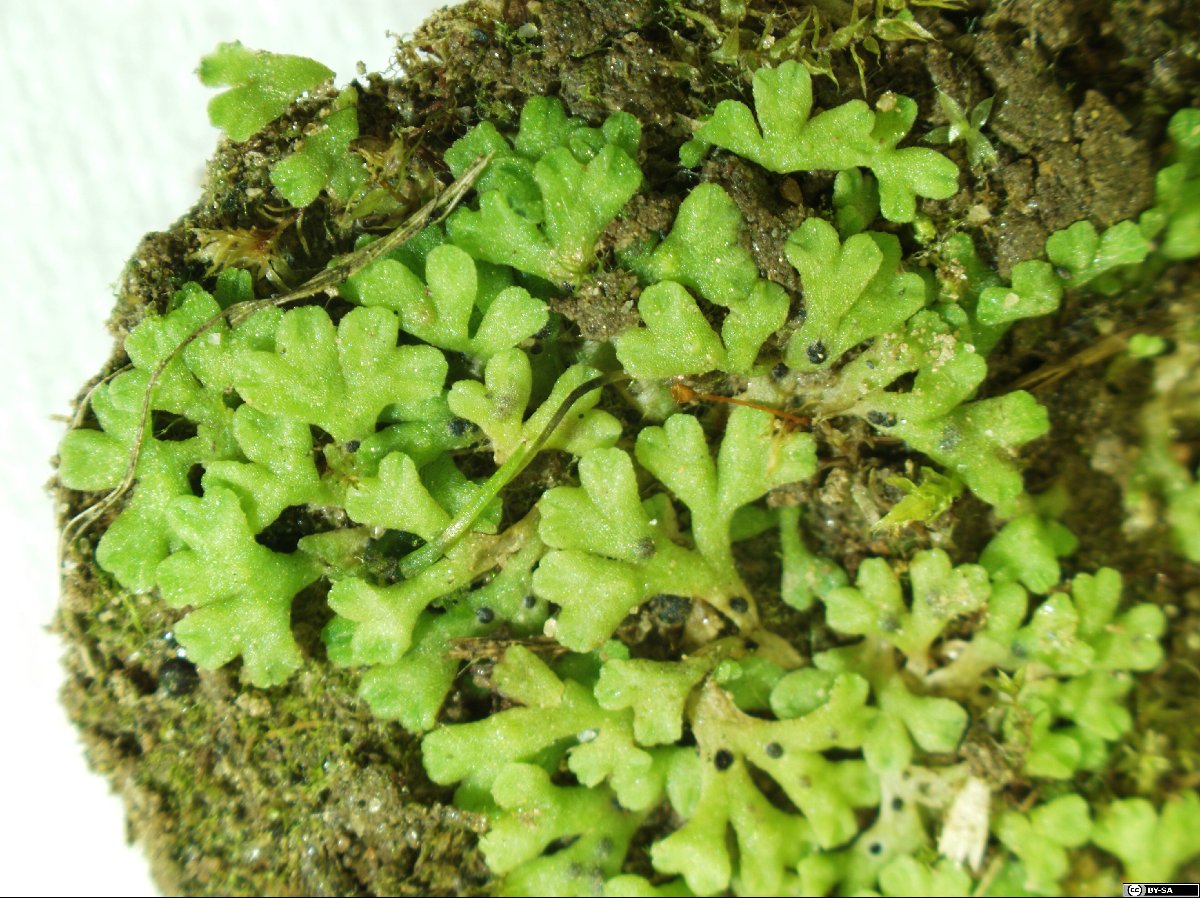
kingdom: Plantae
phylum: Marchantiophyta
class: Marchantiopsida
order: Marchantiales
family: Ricciaceae
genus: Riccia
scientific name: Riccia warnstorfii
